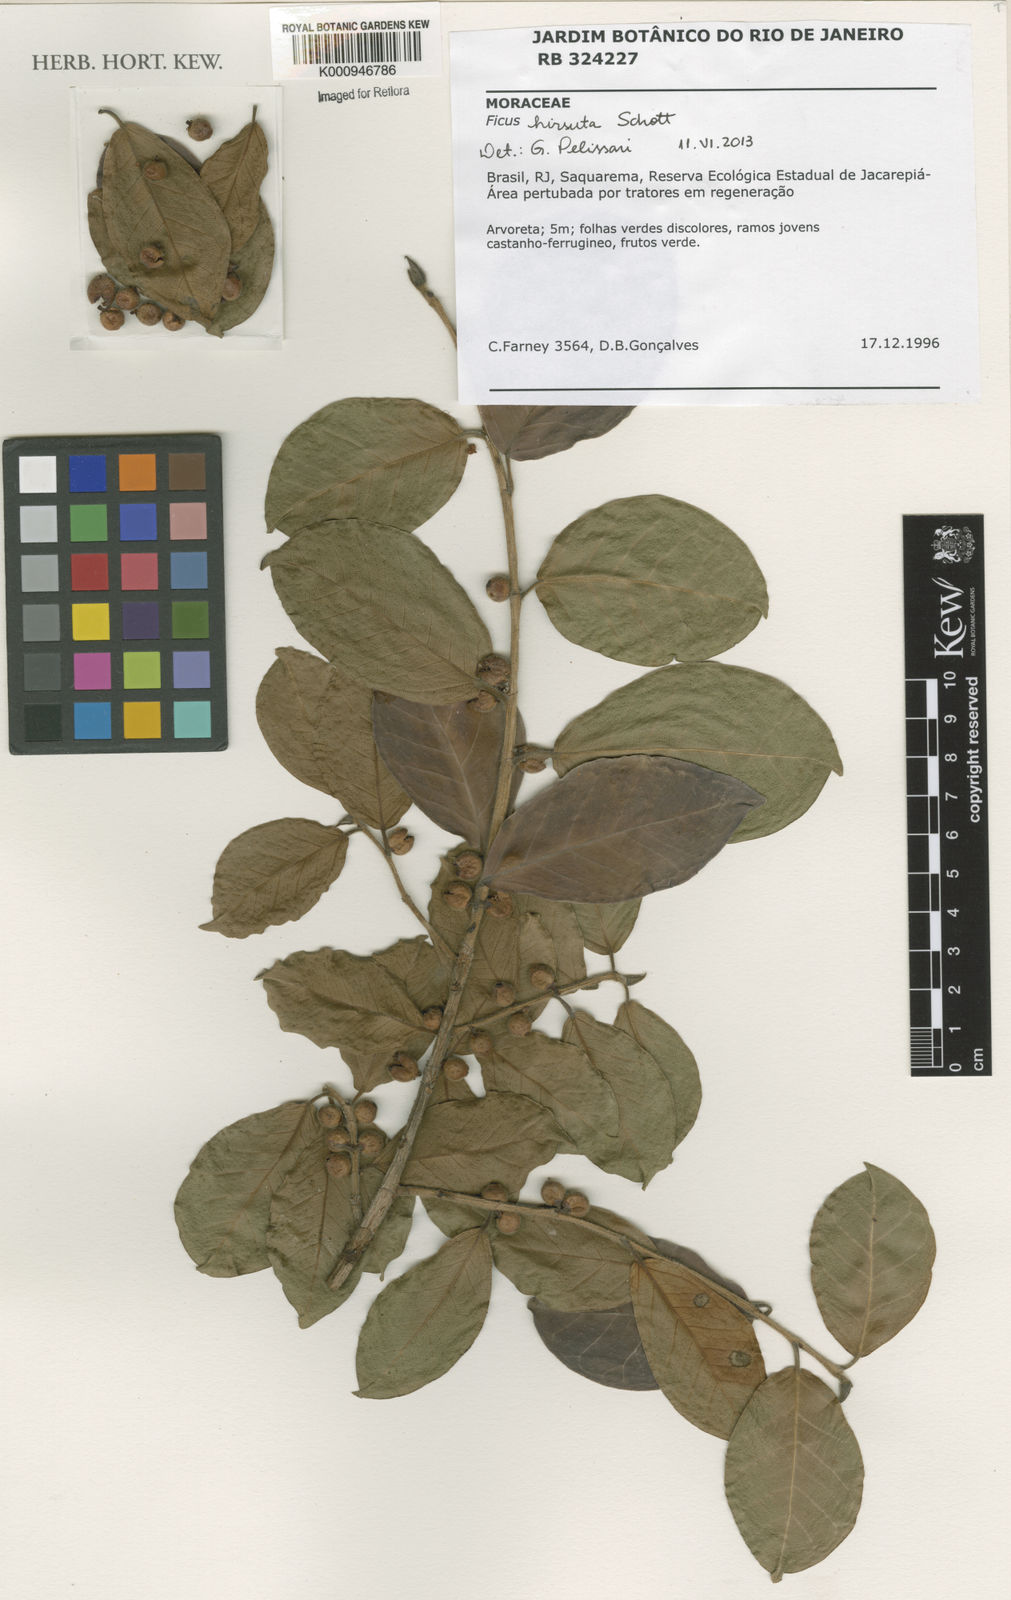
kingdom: Plantae
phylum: Tracheophyta
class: Magnoliopsida
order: Rosales
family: Moraceae
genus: Ficus
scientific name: Ficus hirsuta
